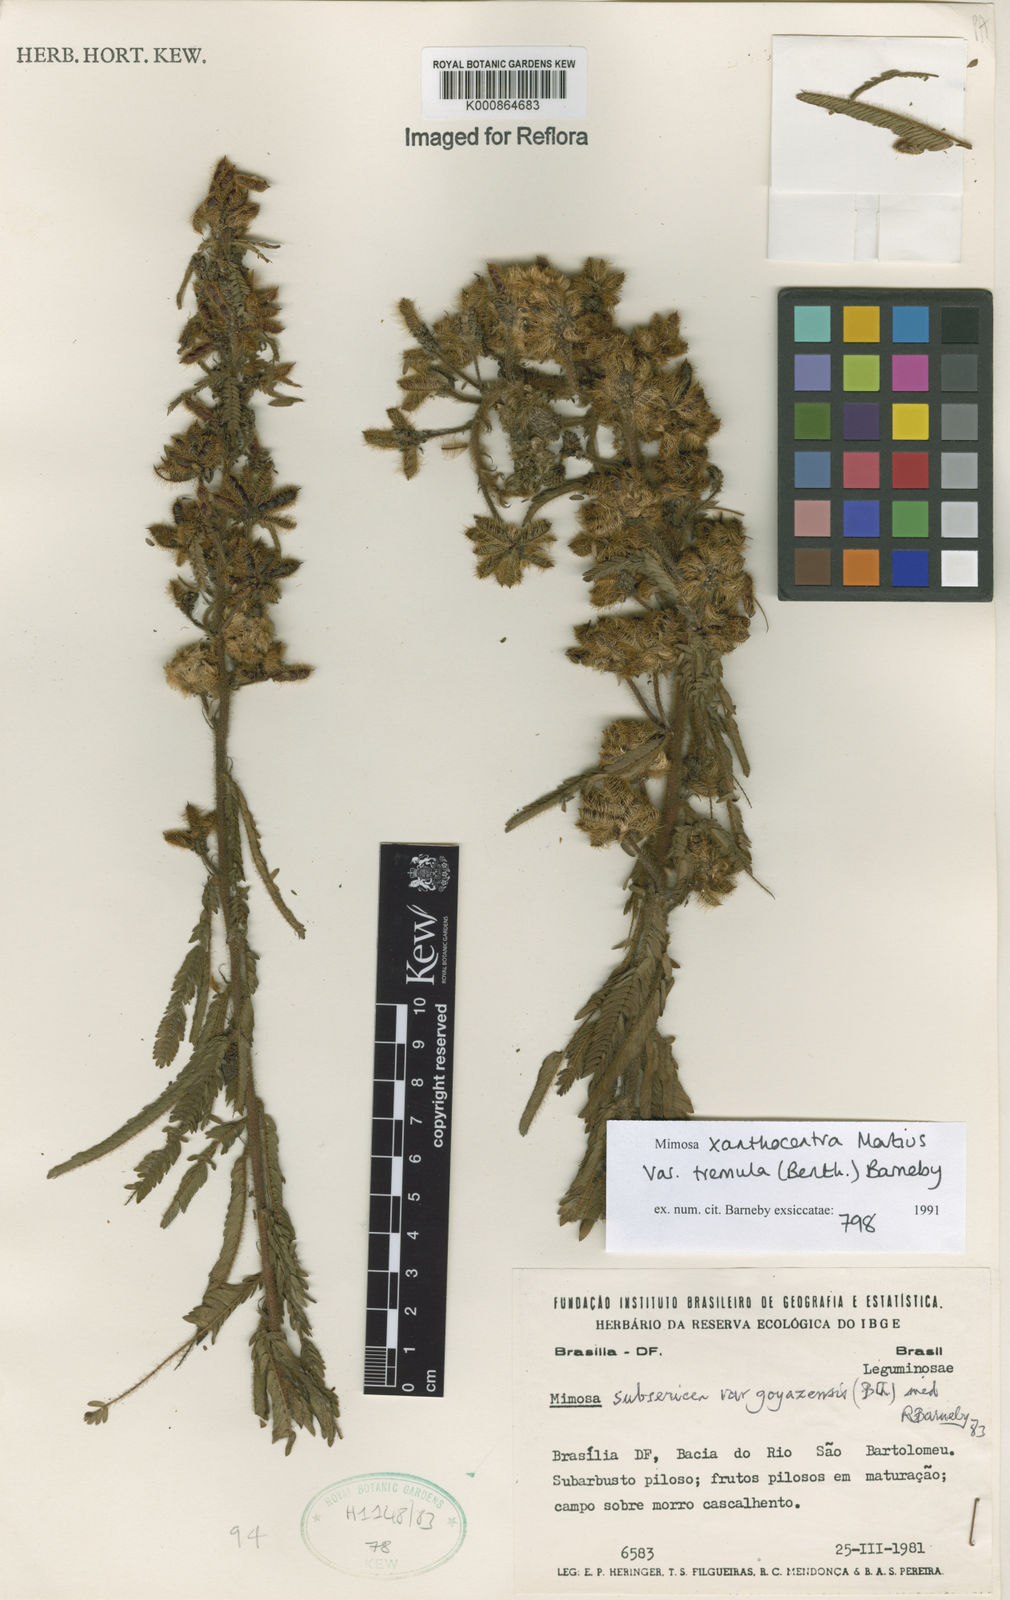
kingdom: Plantae
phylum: Tracheophyta
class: Magnoliopsida
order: Fabales
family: Fabaceae
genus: Mimosa
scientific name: Mimosa xanthocentra
